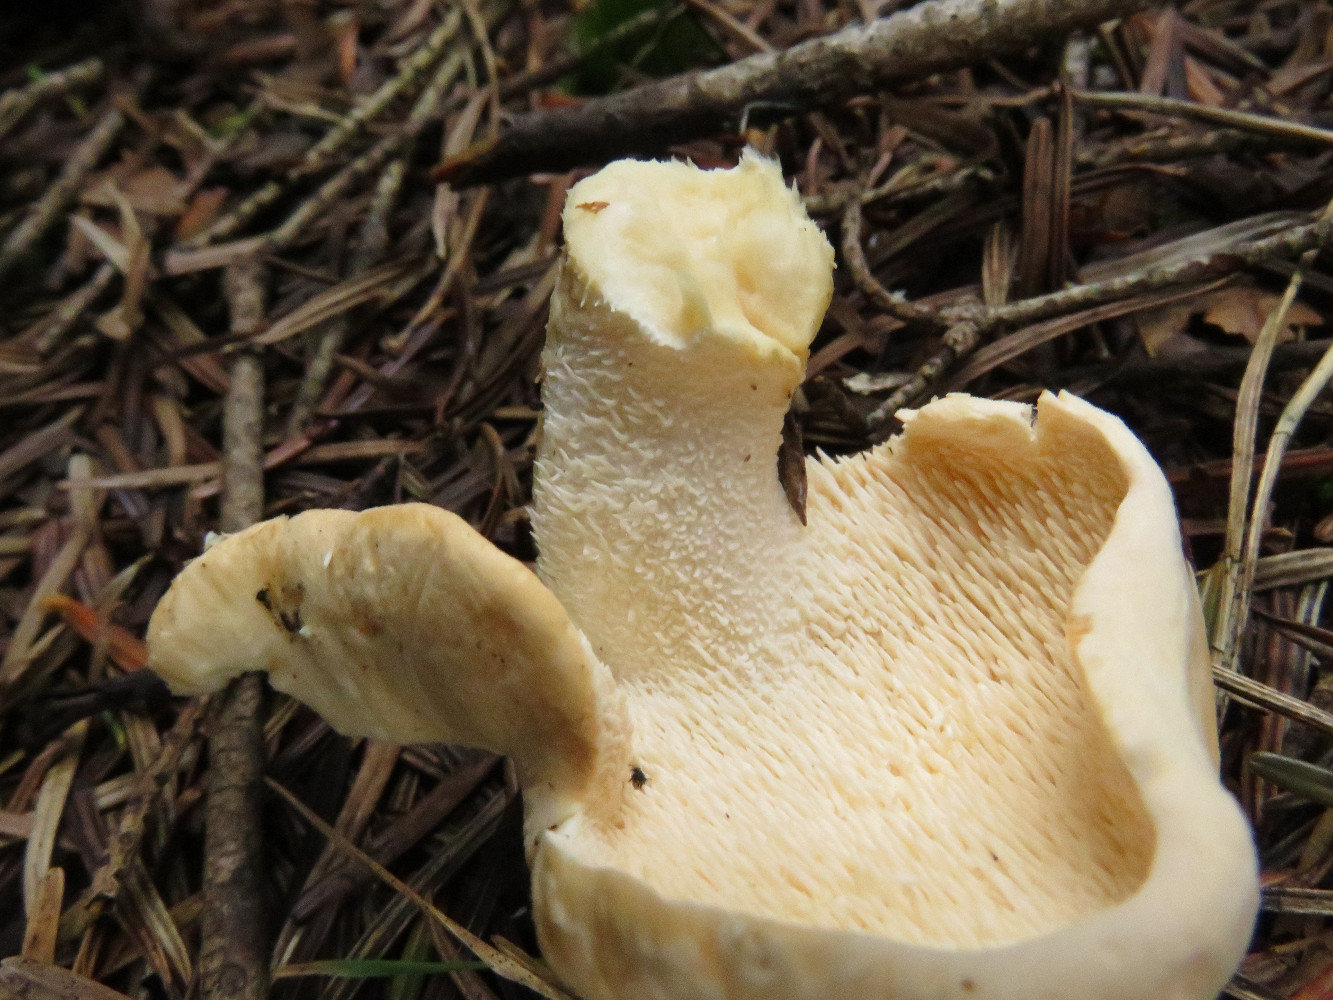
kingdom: Fungi
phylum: Basidiomycota
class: Agaricomycetes
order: Cantharellales
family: Hydnaceae
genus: Hydnum
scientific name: Hydnum repandum
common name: almindelig pigsvamp
